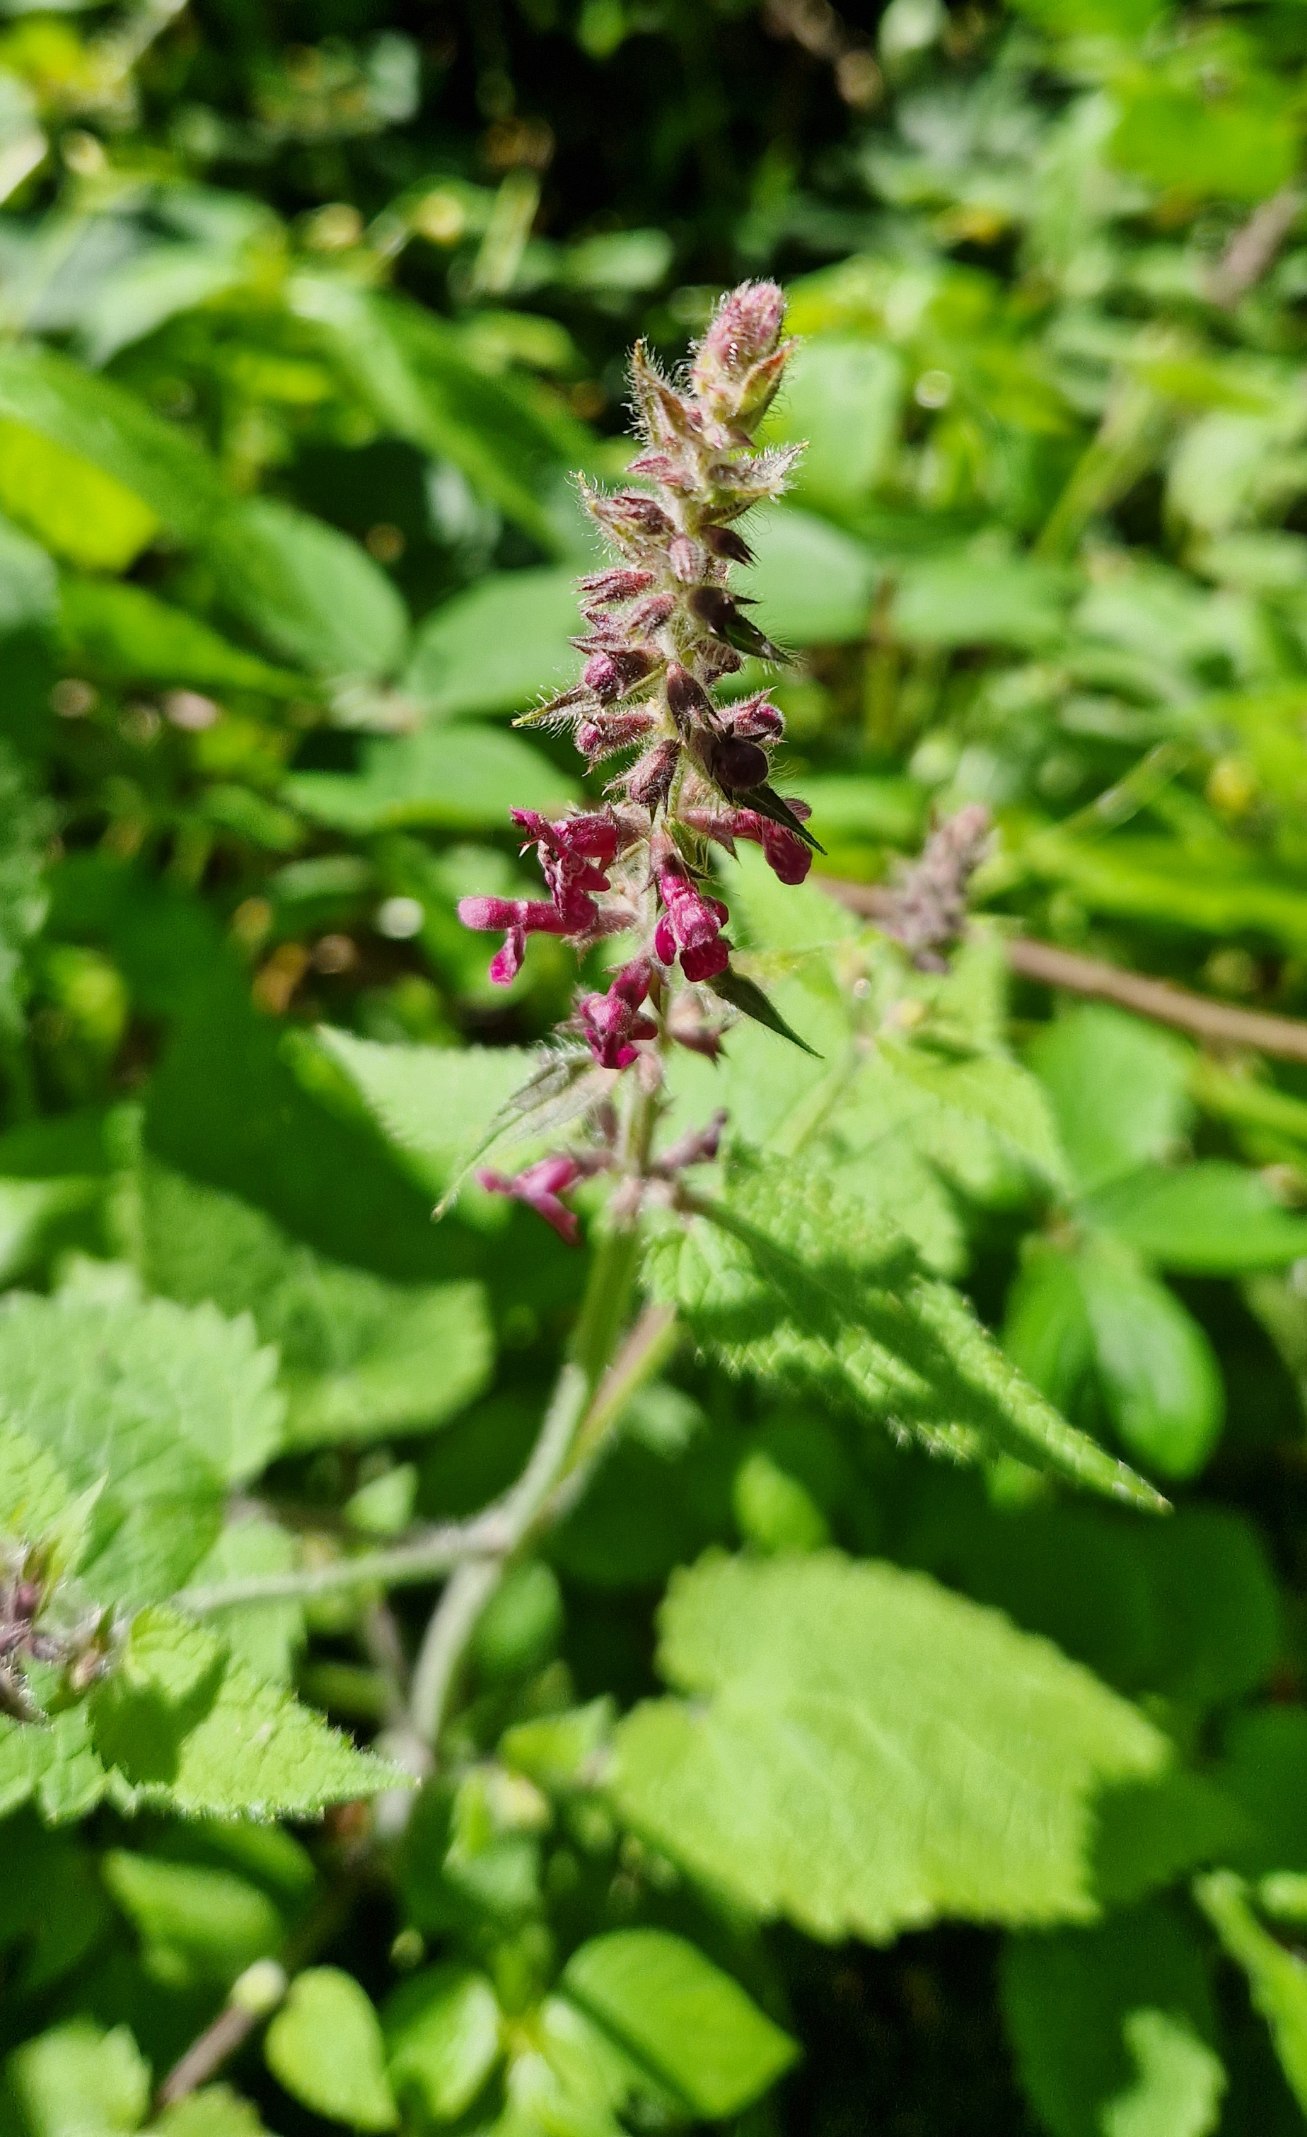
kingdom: Plantae
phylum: Tracheophyta
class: Magnoliopsida
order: Lamiales
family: Lamiaceae
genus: Stachys
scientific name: Stachys sylvatica
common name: Skov-galtetand
